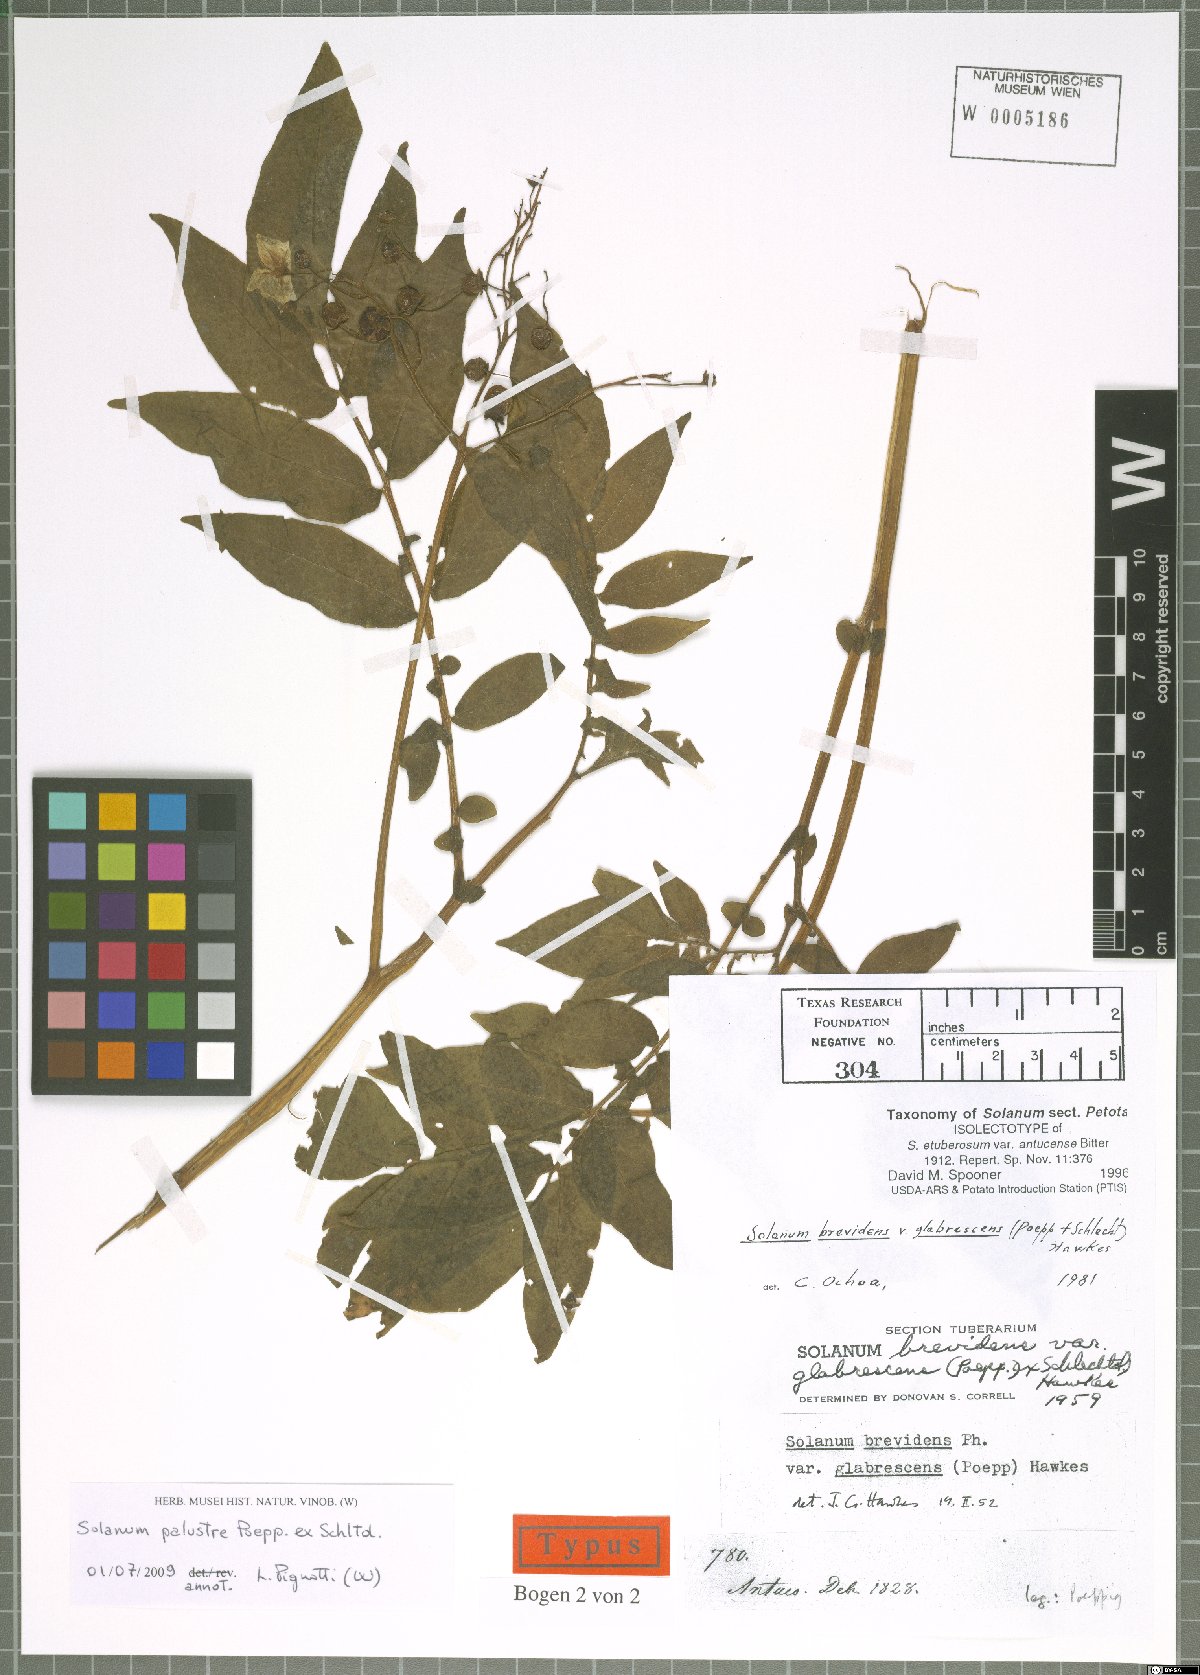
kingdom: Plantae
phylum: Tracheophyta
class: Magnoliopsida
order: Solanales
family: Solanaceae
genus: Solanum
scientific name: Solanum palustre
